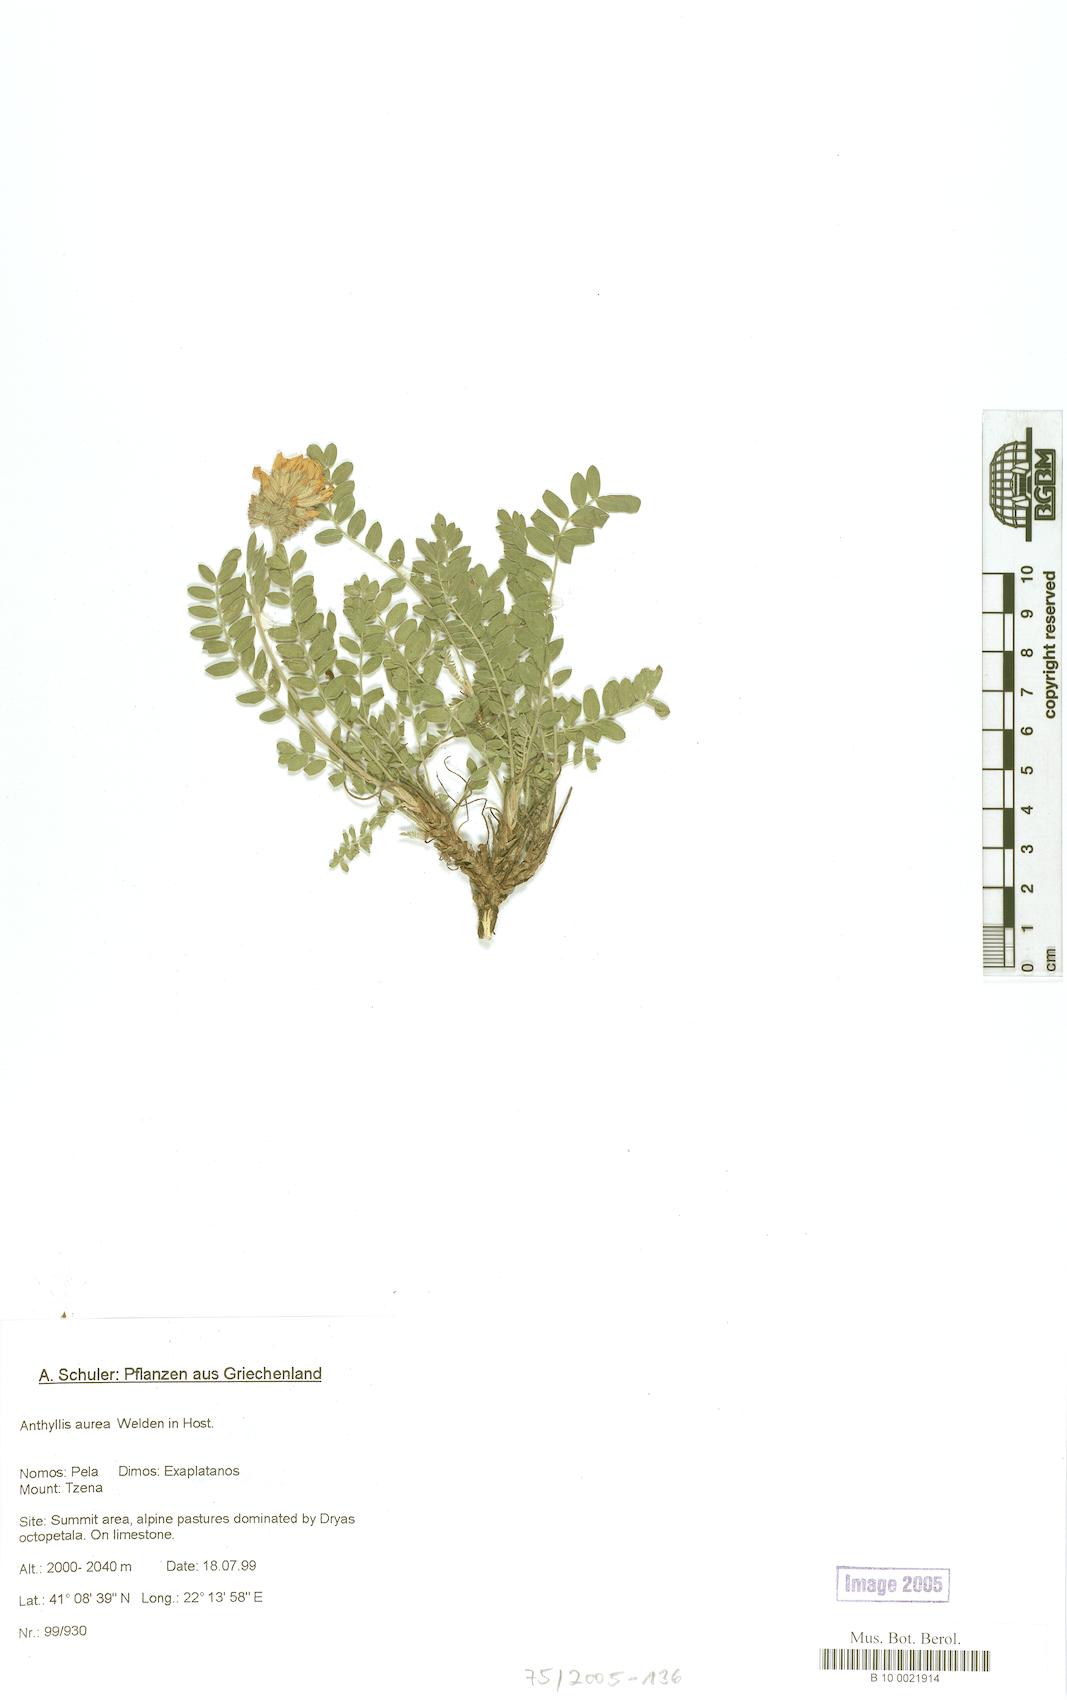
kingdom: Plantae
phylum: Tracheophyta
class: Magnoliopsida
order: Fabales
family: Fabaceae
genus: Anthyllis
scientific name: Anthyllis aurea
